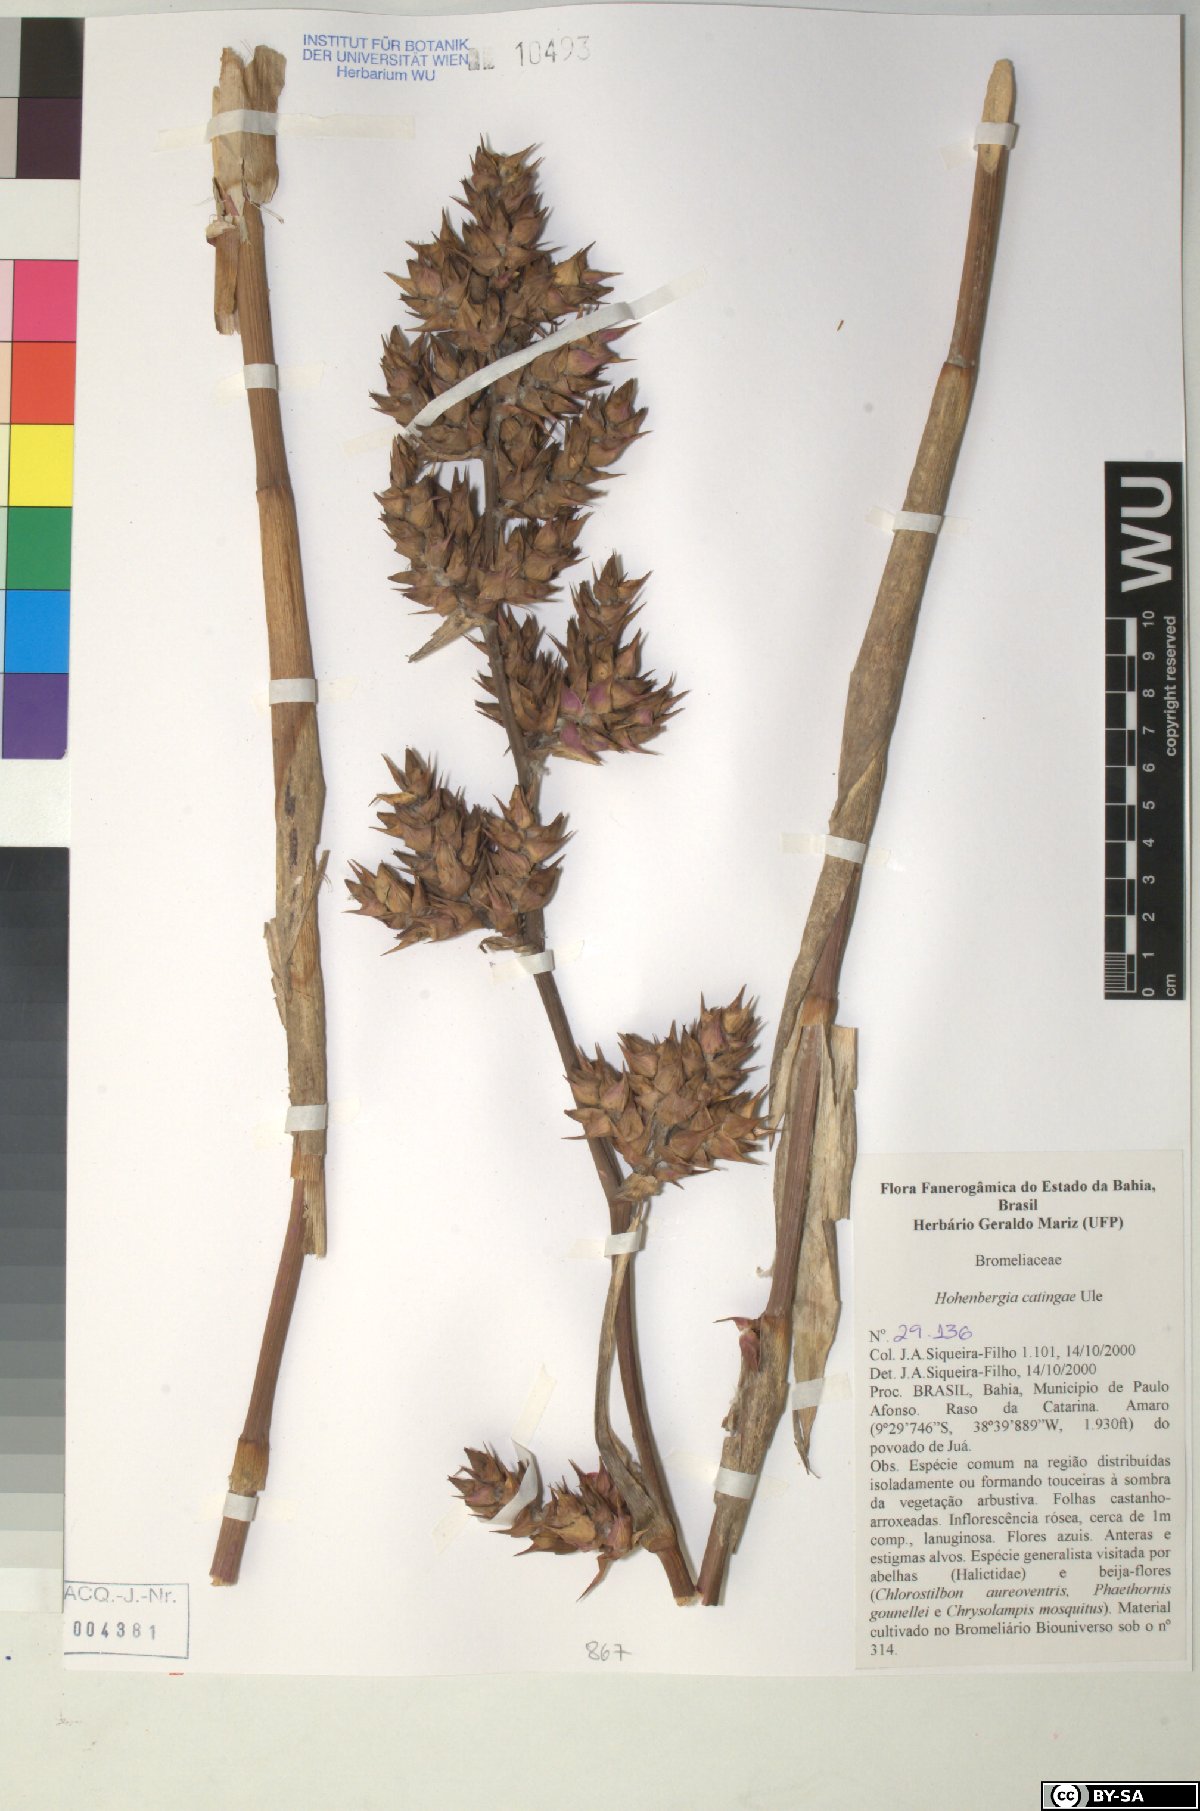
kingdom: Plantae
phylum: Tracheophyta
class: Liliopsida
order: Poales
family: Bromeliaceae
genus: Hohenbergia
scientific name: Hohenbergia catingae
